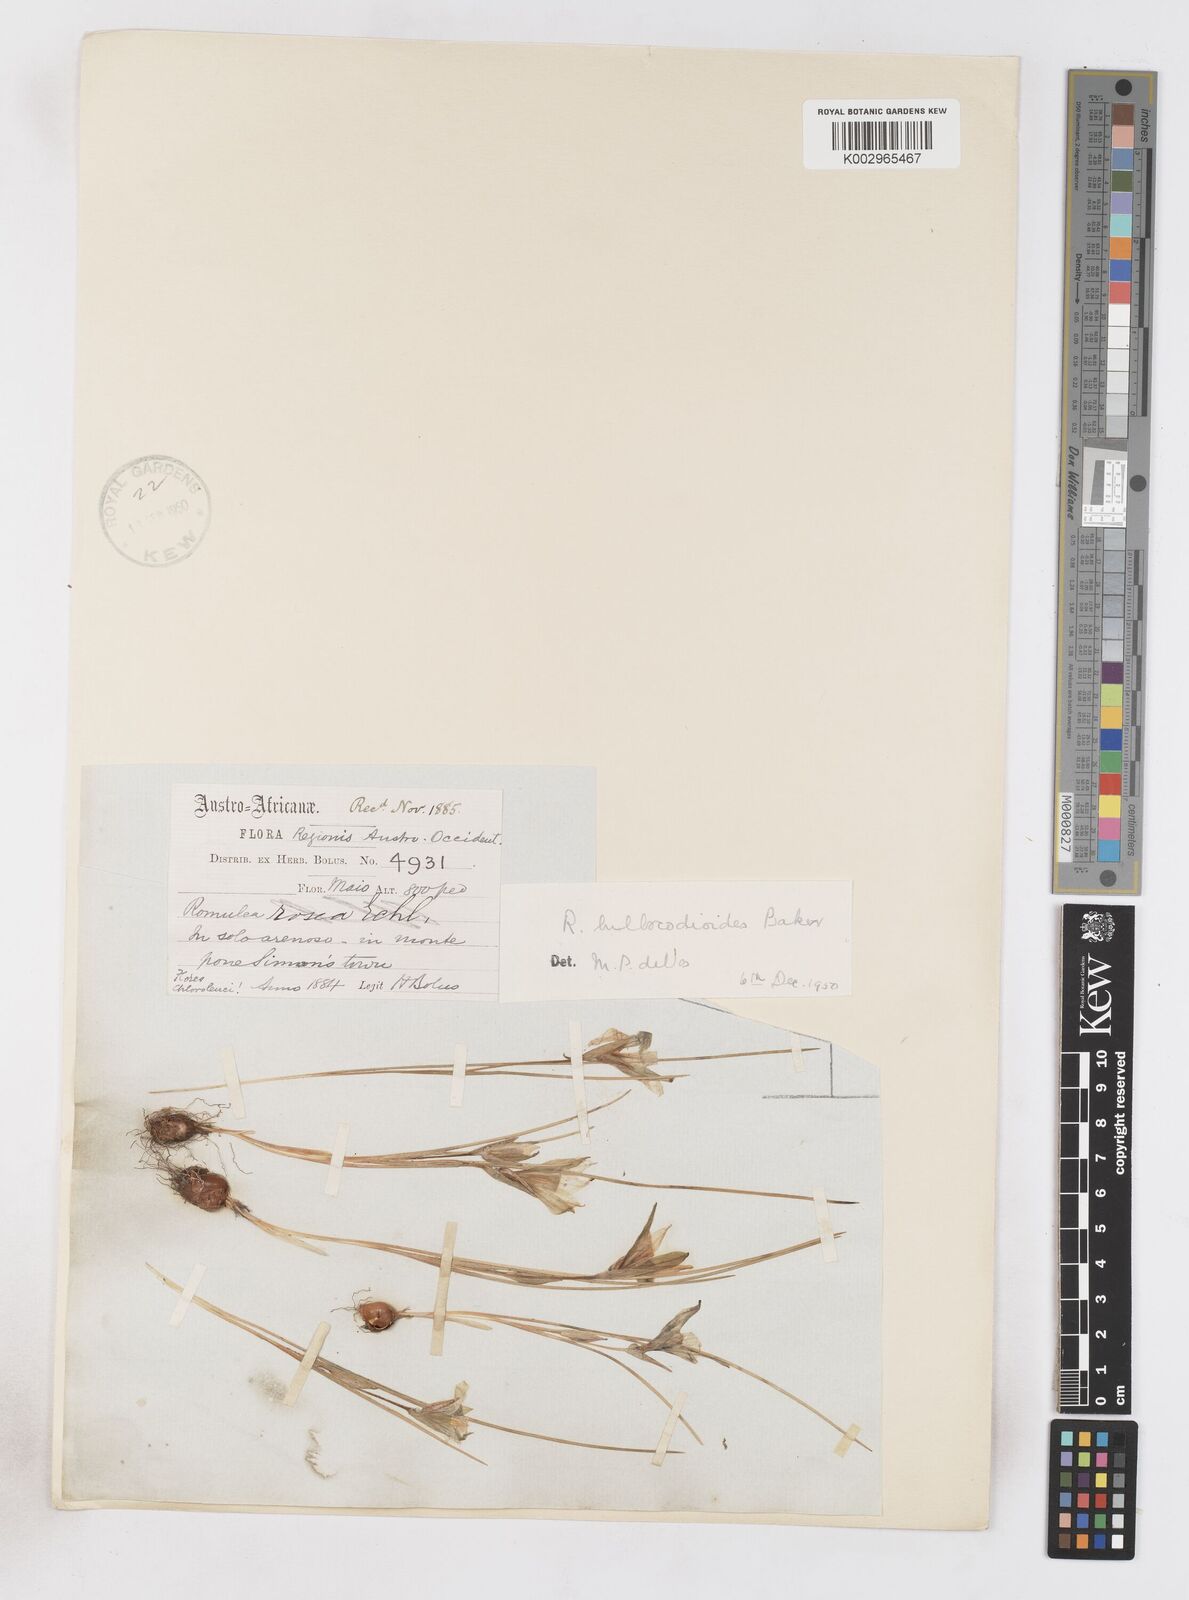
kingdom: Plantae
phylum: Tracheophyta
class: Liliopsida
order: Asparagales
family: Iridaceae
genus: Romulea
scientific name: Romulea flava
